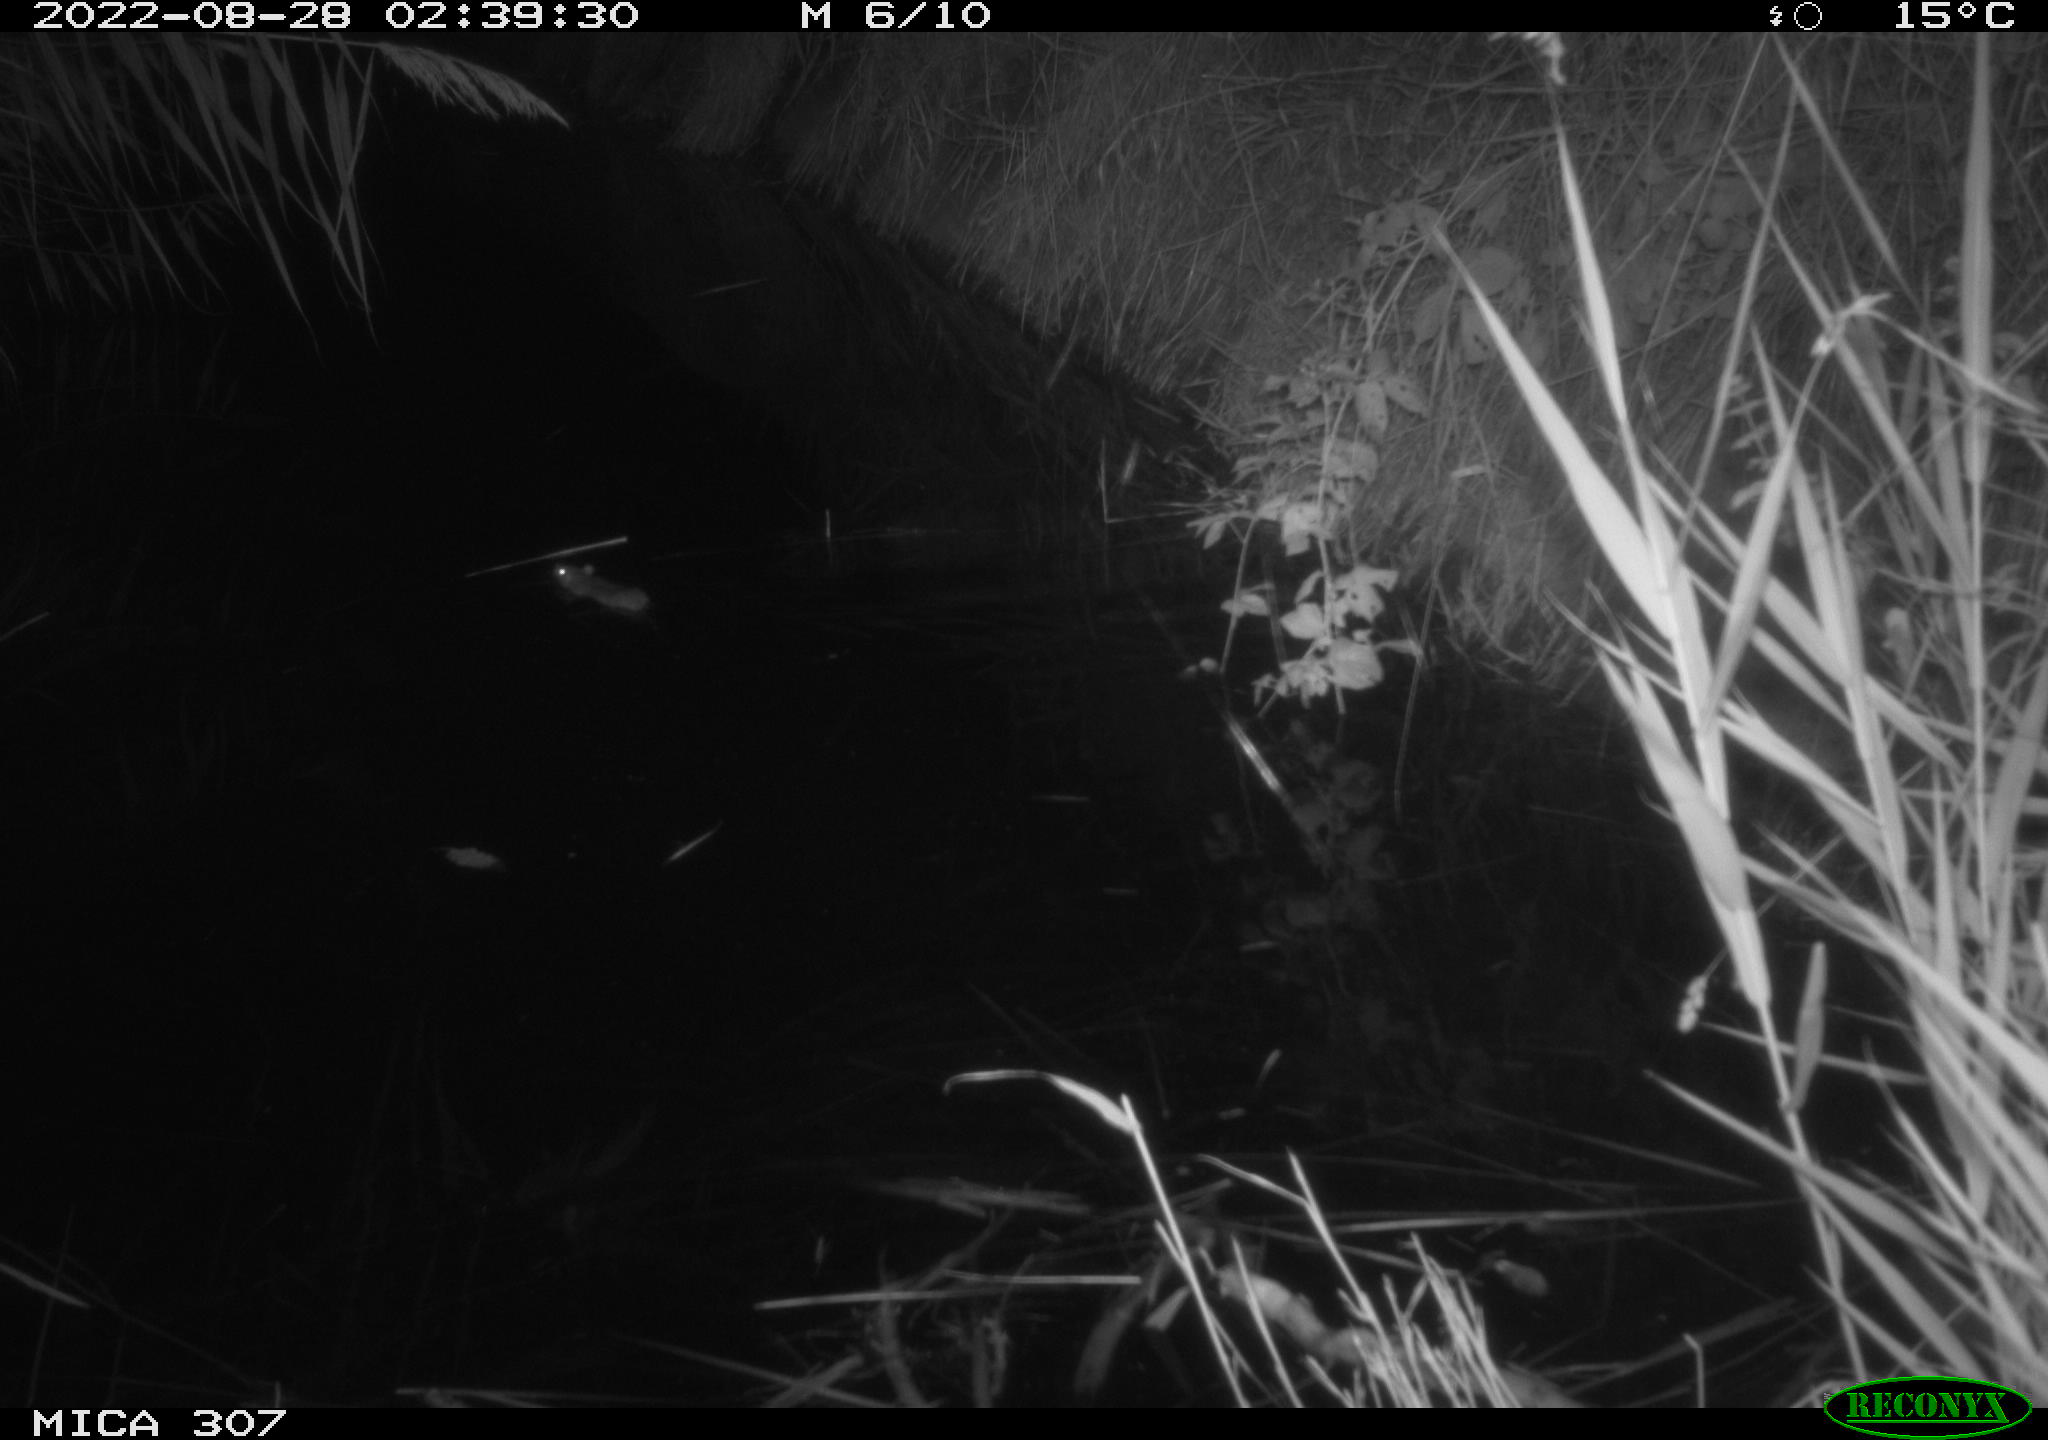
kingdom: Animalia
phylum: Chordata
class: Mammalia
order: Rodentia
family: Muridae
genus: Rattus
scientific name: Rattus norvegicus
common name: Brown rat
